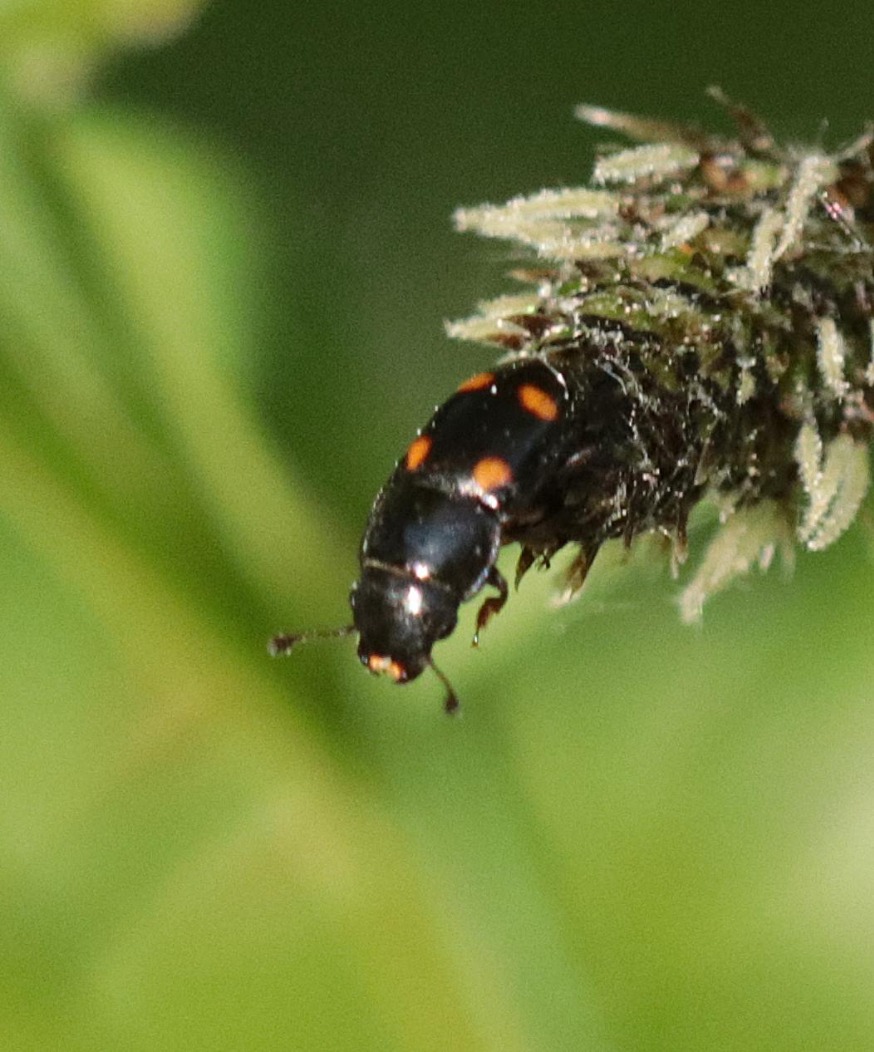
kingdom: Animalia
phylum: Arthropoda
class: Insecta
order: Coleoptera
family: Nitidulidae
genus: Glischrochilus
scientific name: Glischrochilus hortensis
